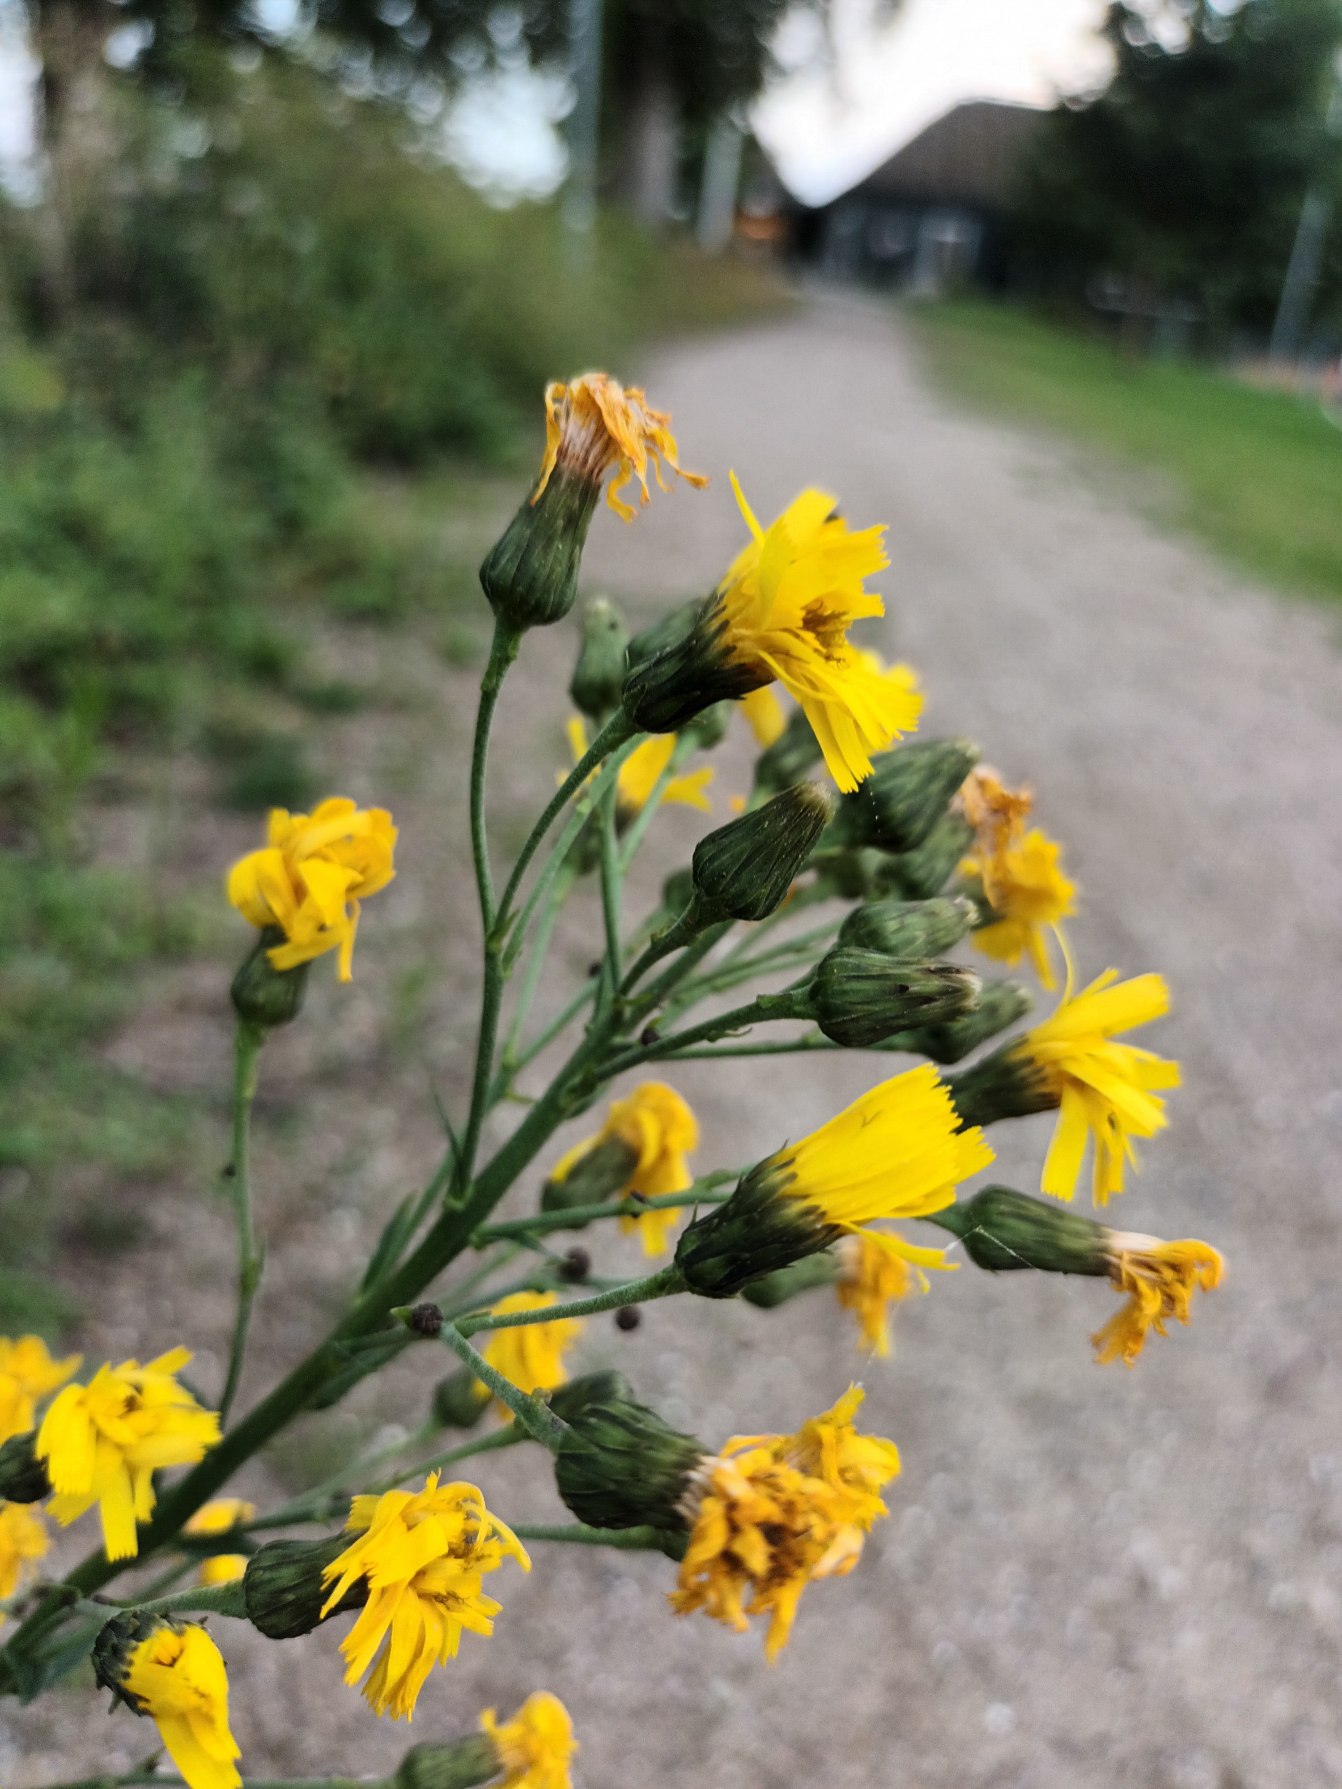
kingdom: Plantae
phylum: Tracheophyta
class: Magnoliopsida
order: Asterales
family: Asteraceae
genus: Hieracium
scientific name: Hieracium sabaudum
